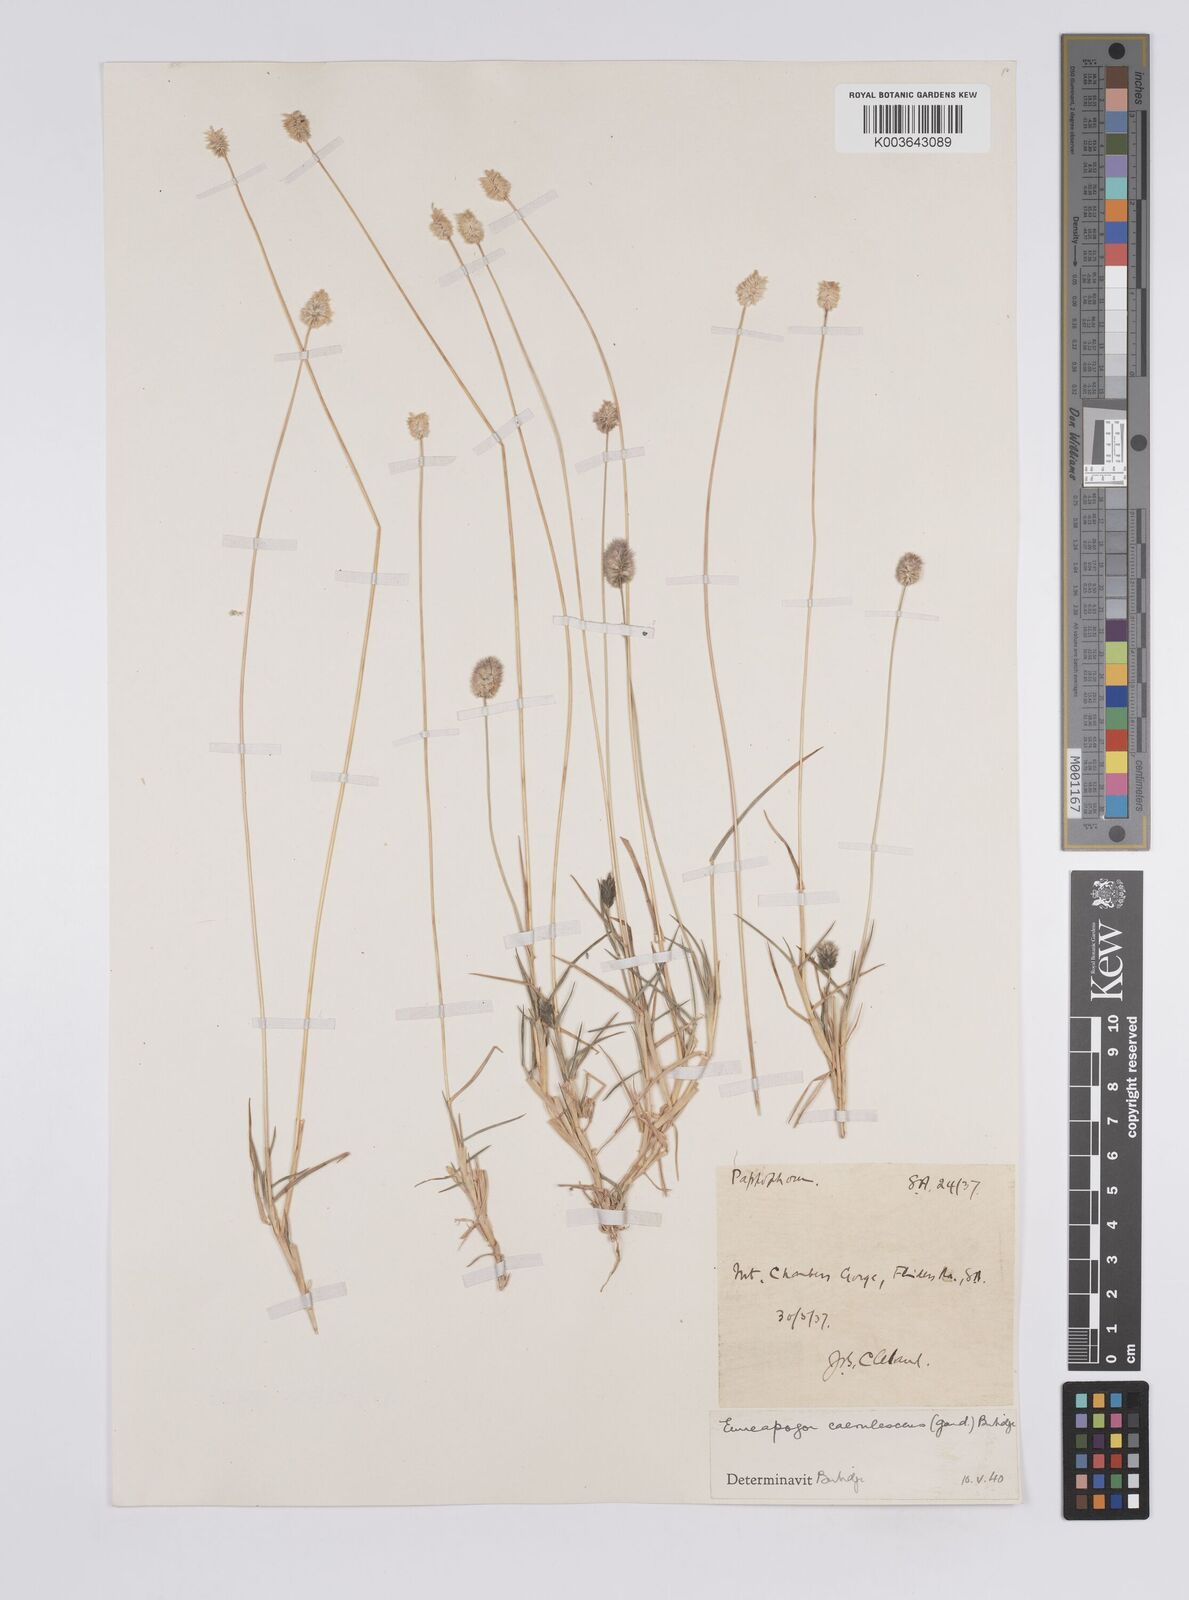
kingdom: Plantae
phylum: Tracheophyta
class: Liliopsida
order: Poales
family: Poaceae
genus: Enneapogon
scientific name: Enneapogon caerulescens
